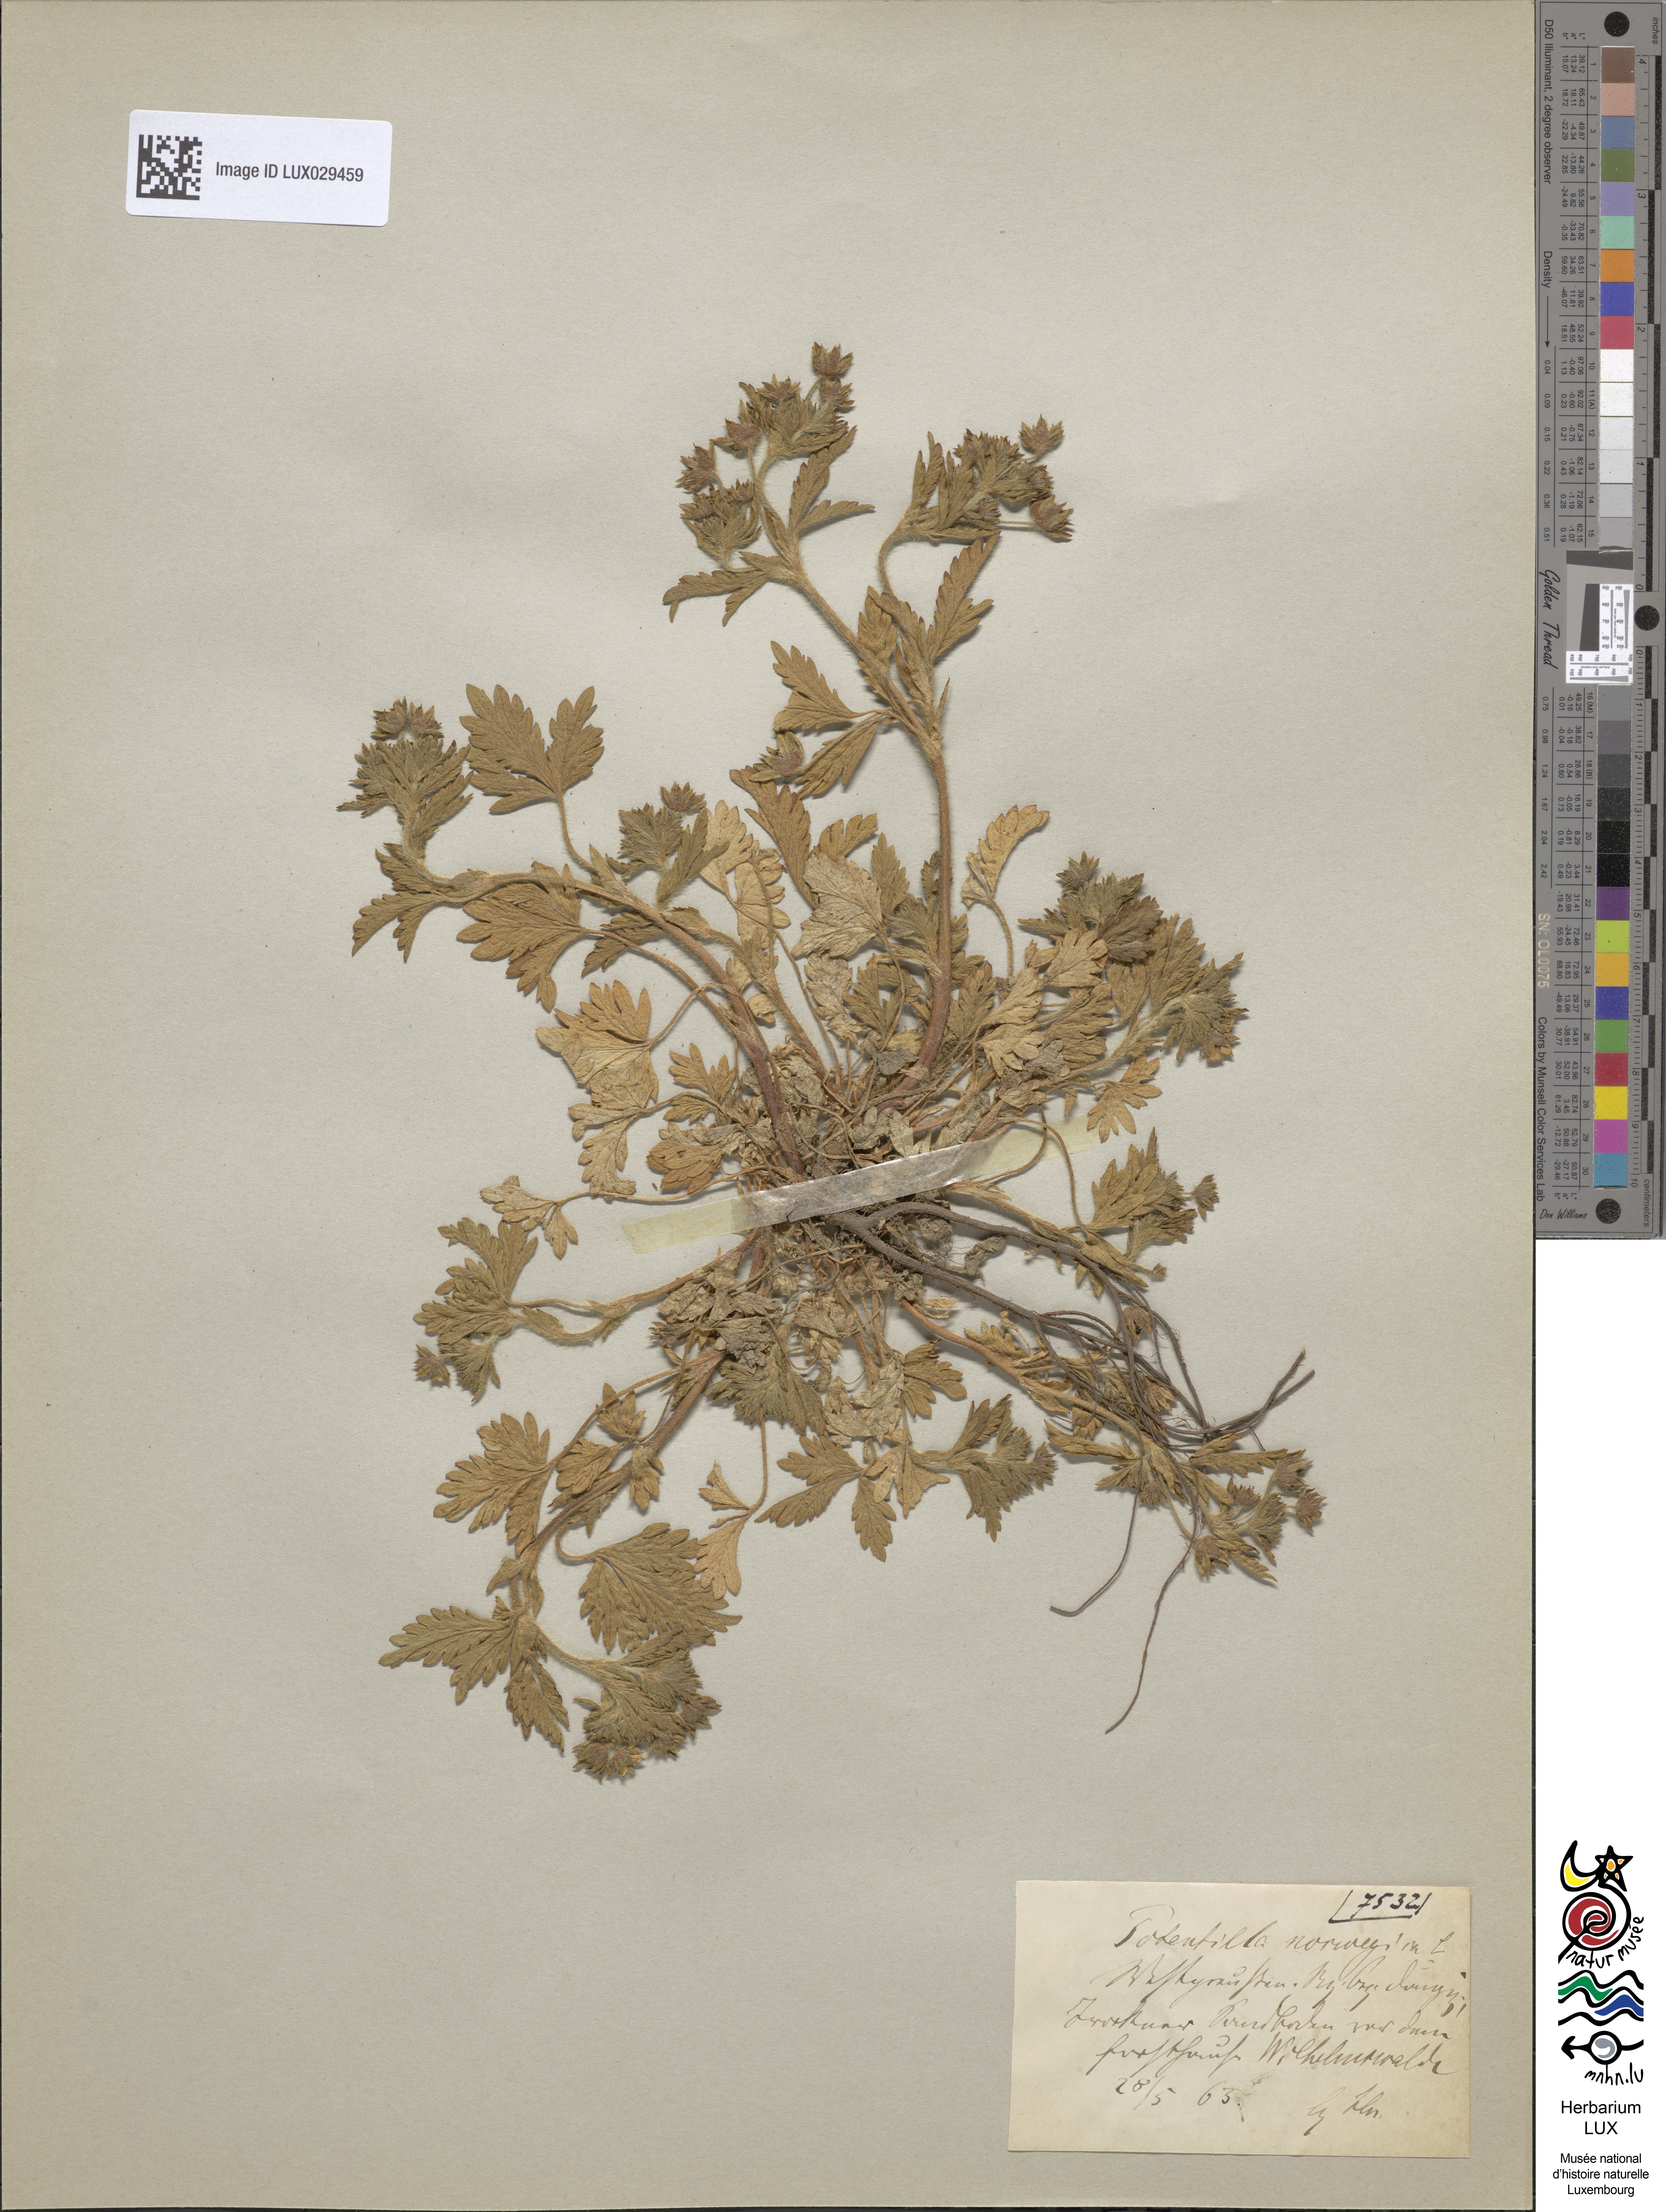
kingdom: Plantae
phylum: Tracheophyta
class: Magnoliopsida
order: Rosales
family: Rosaceae
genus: Potentilla
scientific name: Potentilla norvegica
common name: Ternate-leaved cinquefoil
